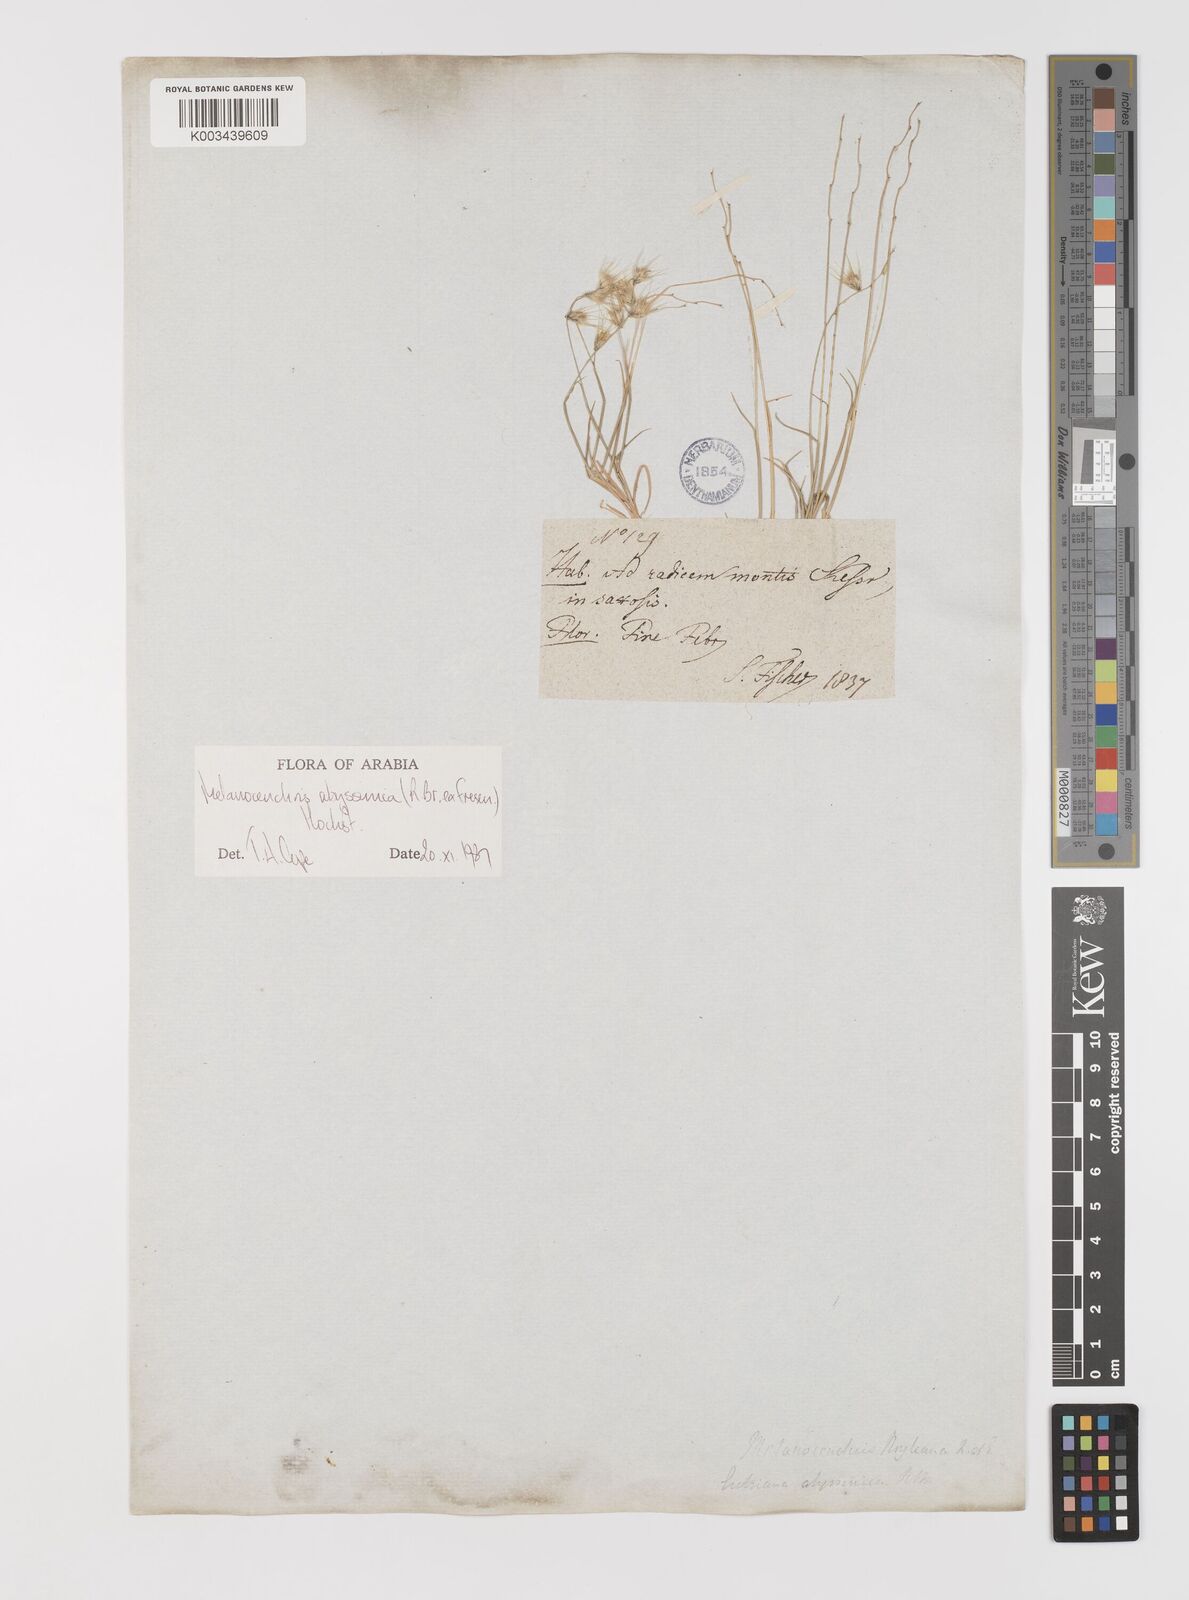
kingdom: Plantae
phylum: Tracheophyta
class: Liliopsida
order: Poales
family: Poaceae
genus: Melanocenchris
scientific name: Melanocenchris abyssinica
